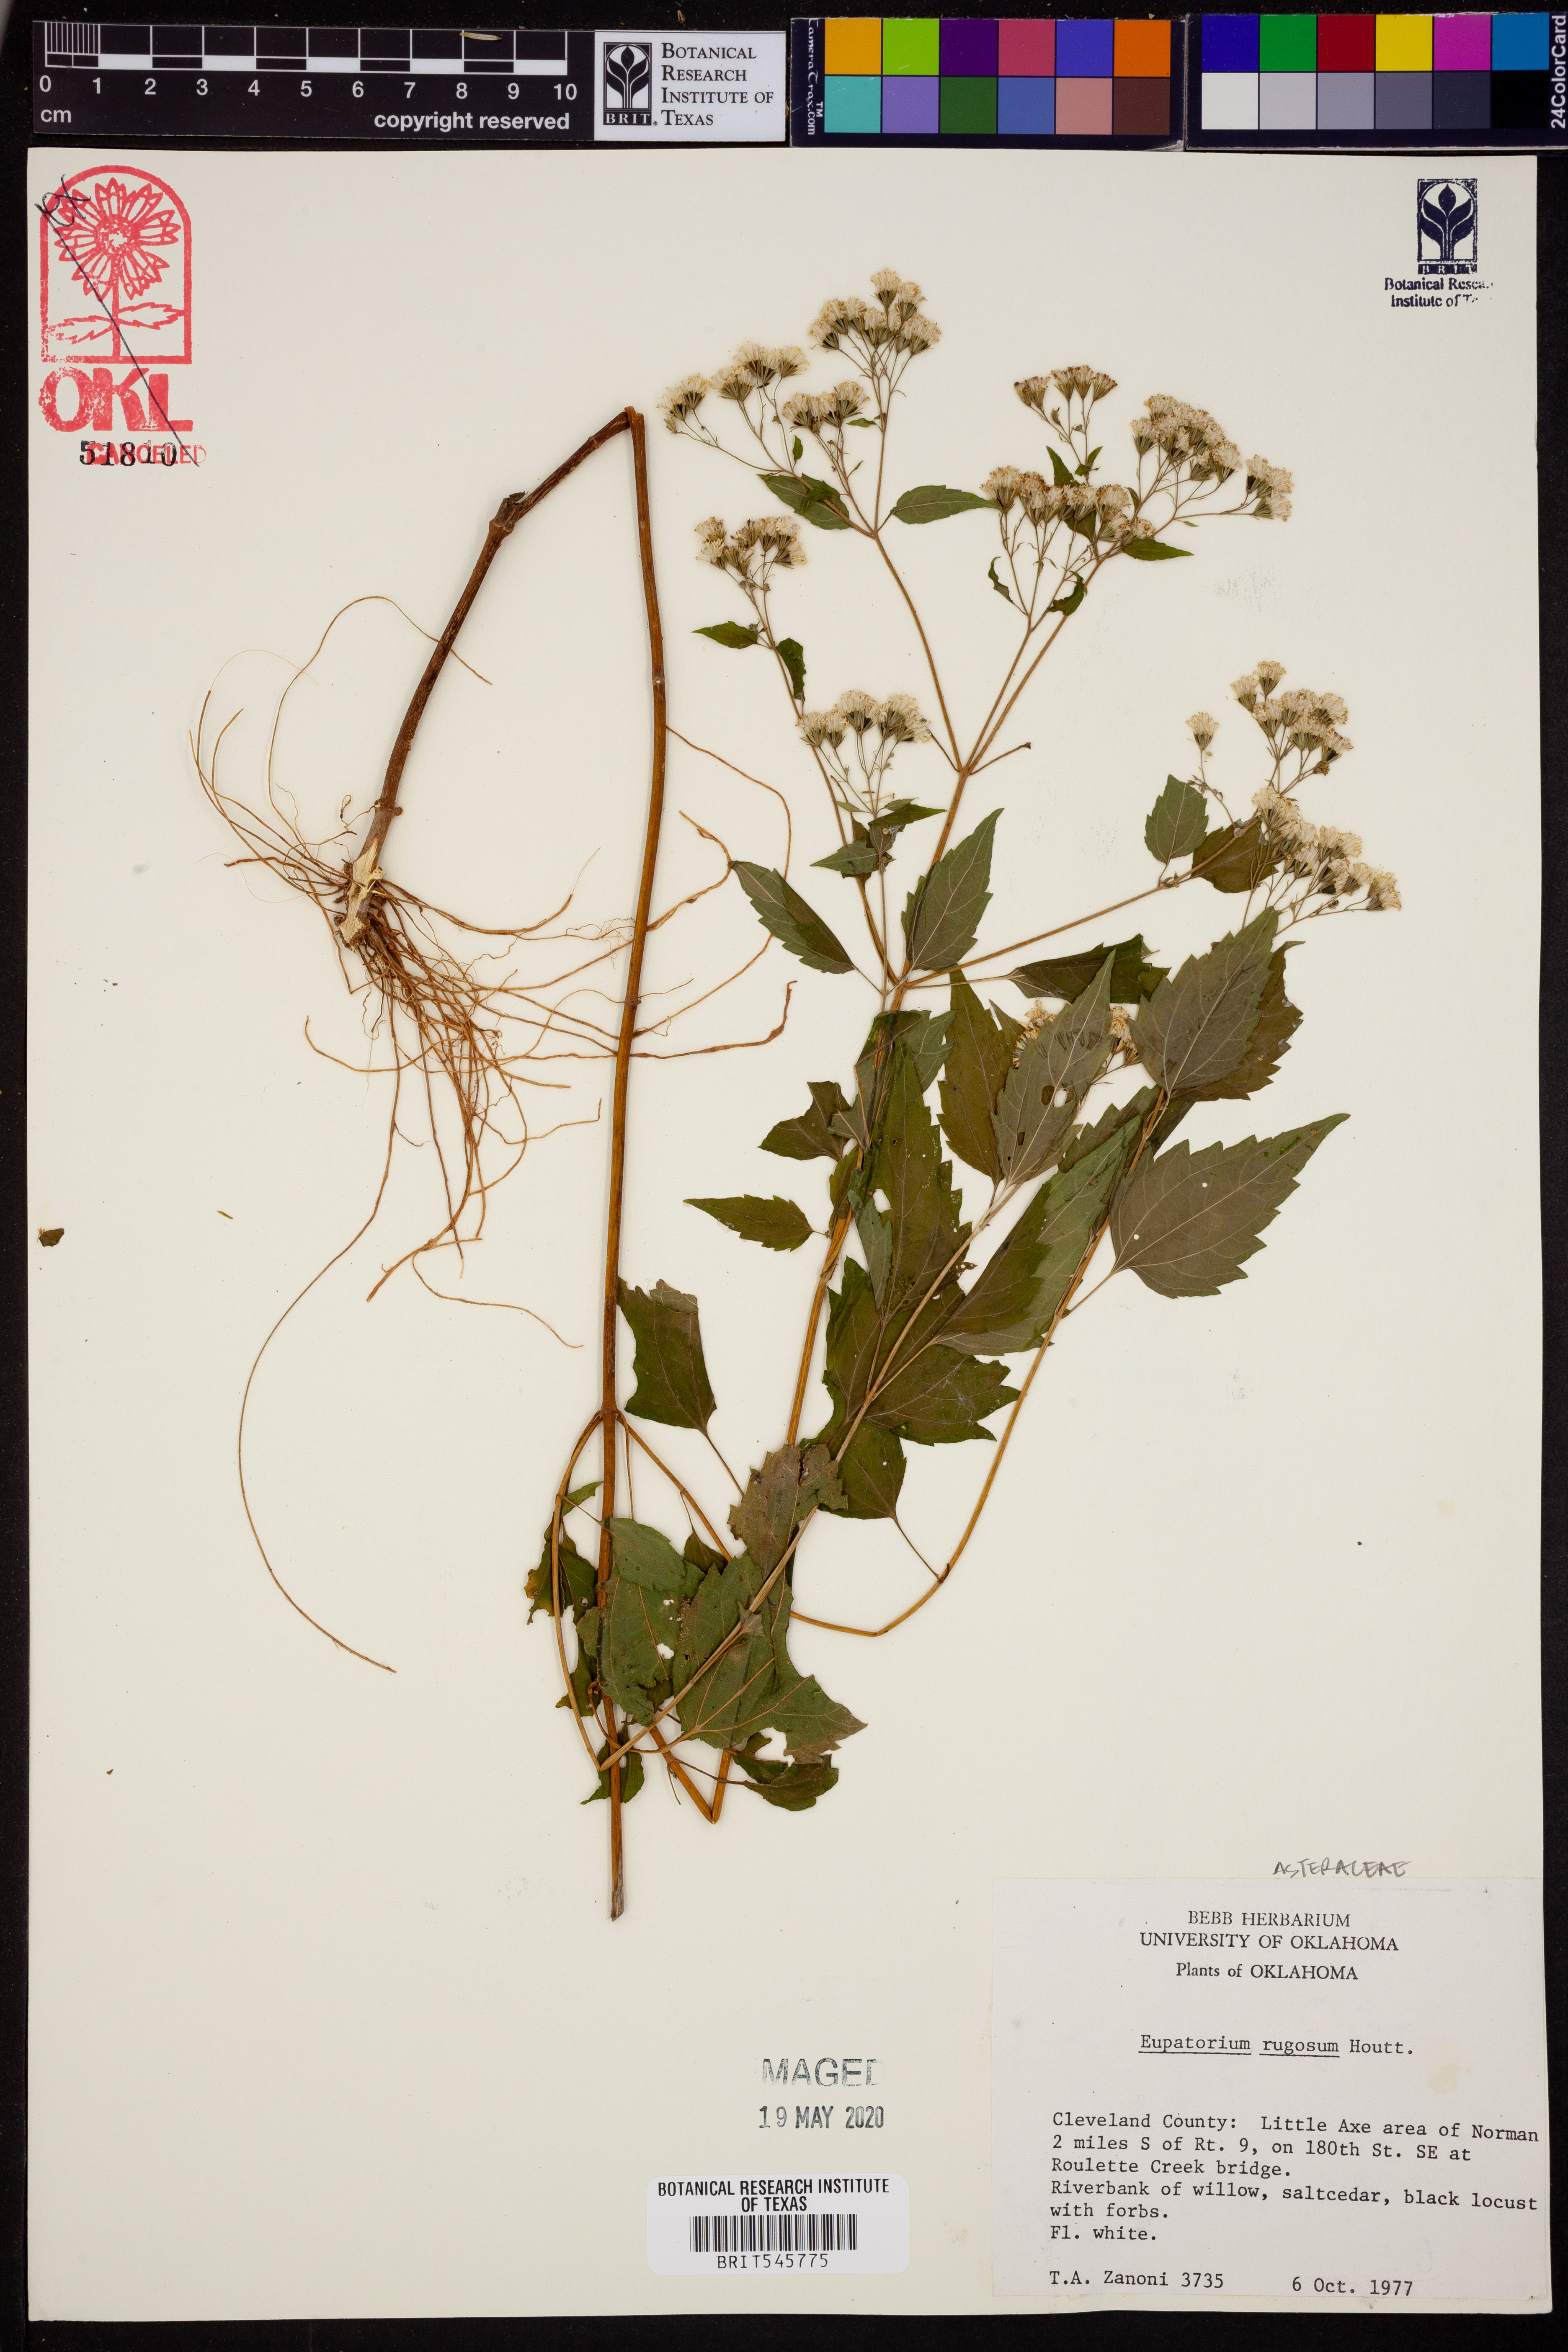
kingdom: Plantae
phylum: Tracheophyta
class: Magnoliopsida
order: Asterales
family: Asteraceae
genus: Cronquistianthus
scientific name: Cronquistianthus bulliferus
